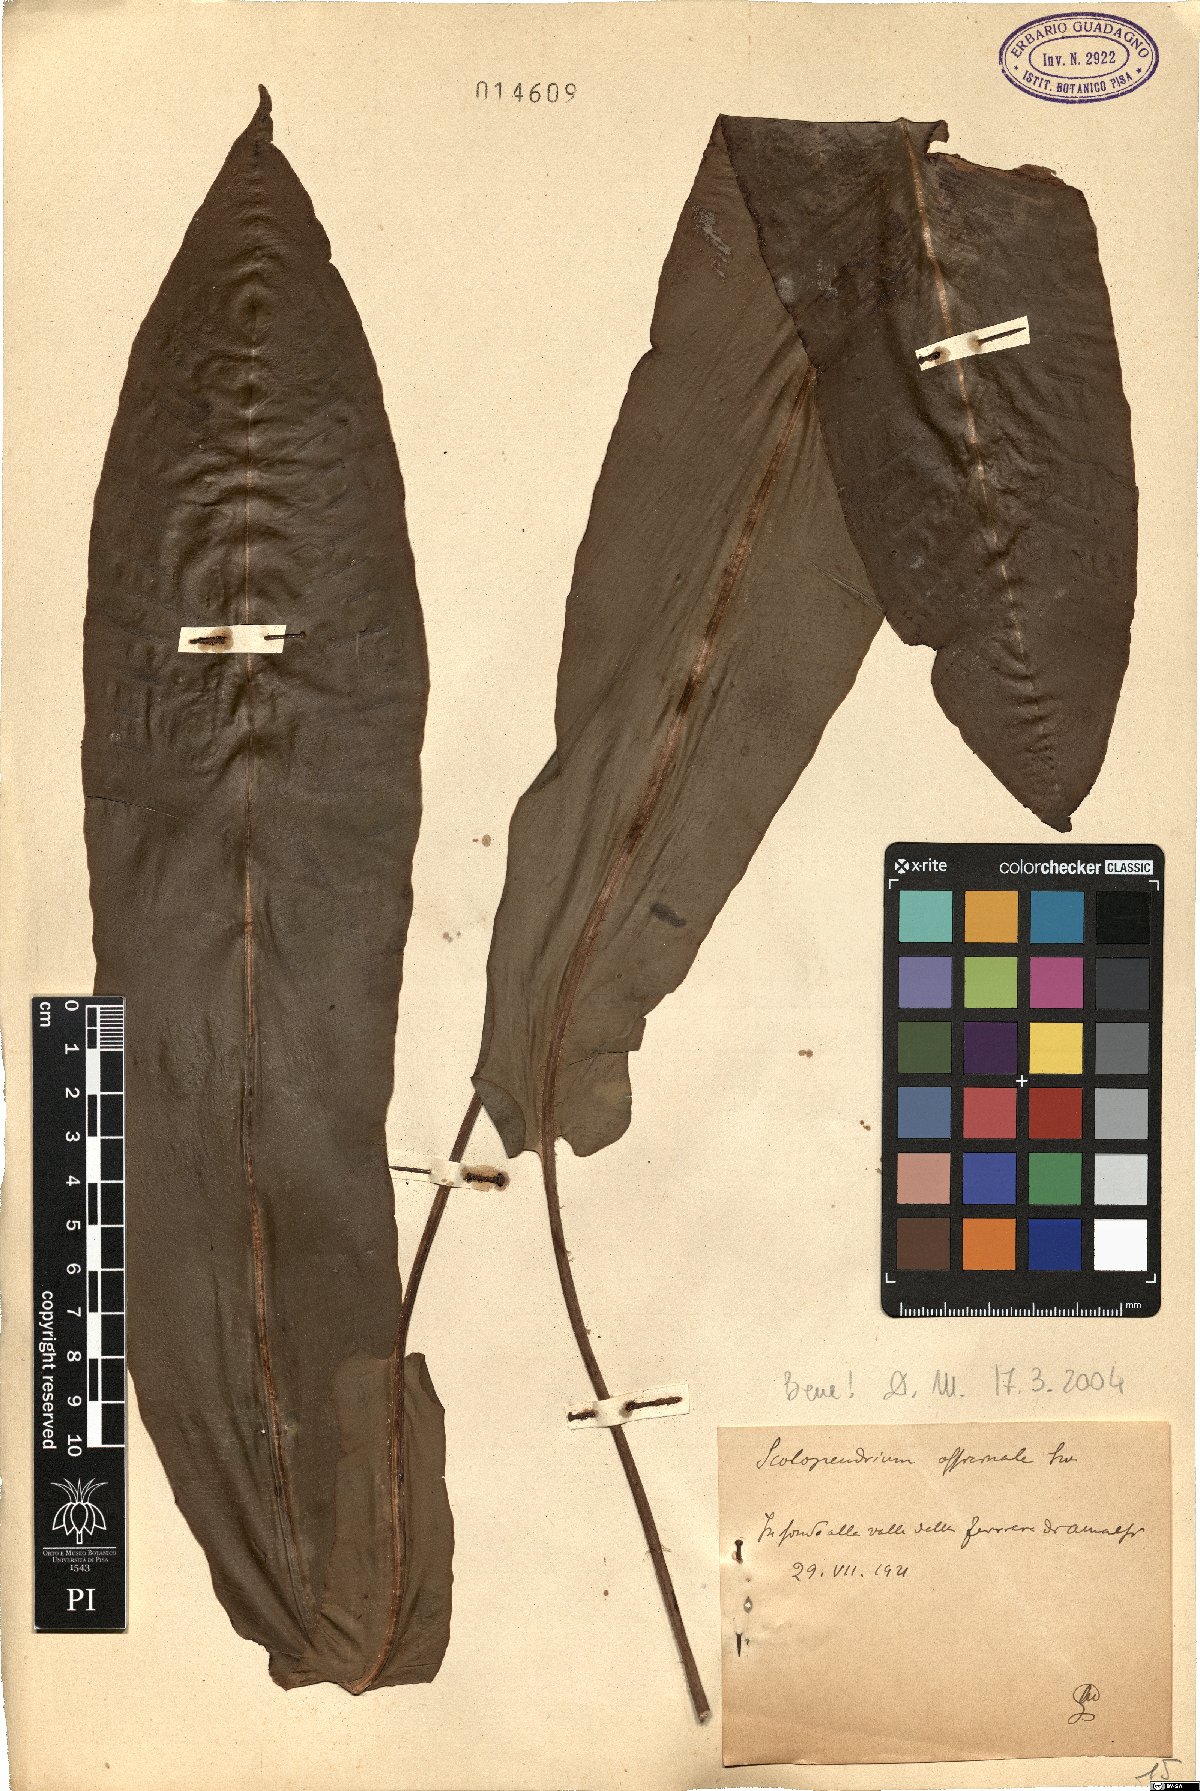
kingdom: Plantae
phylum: Tracheophyta
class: Polypodiopsida
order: Polypodiales
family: Aspleniaceae
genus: Asplenium
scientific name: Asplenium scolopendrium
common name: Hart's-tongue fern
